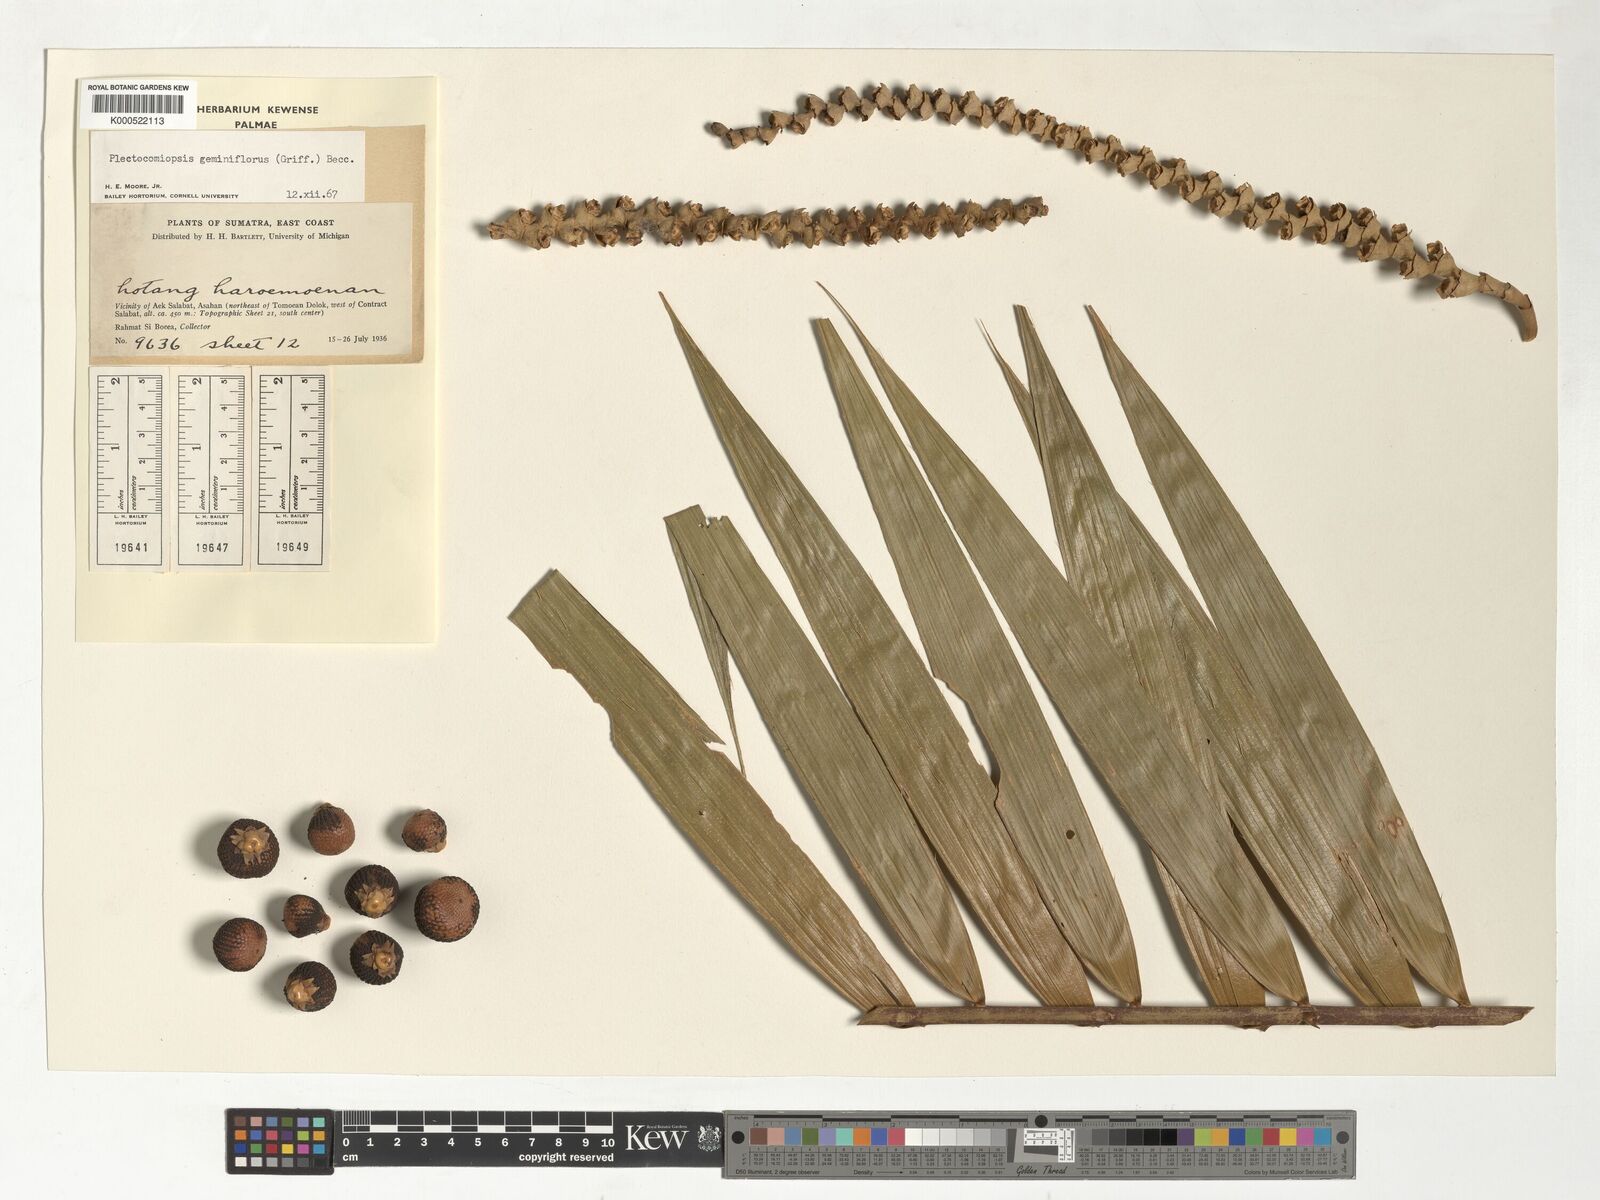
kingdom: Plantae
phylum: Tracheophyta
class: Liliopsida
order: Arecales
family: Arecaceae
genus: Plectocomiopsis
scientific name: Plectocomiopsis geminiflora
